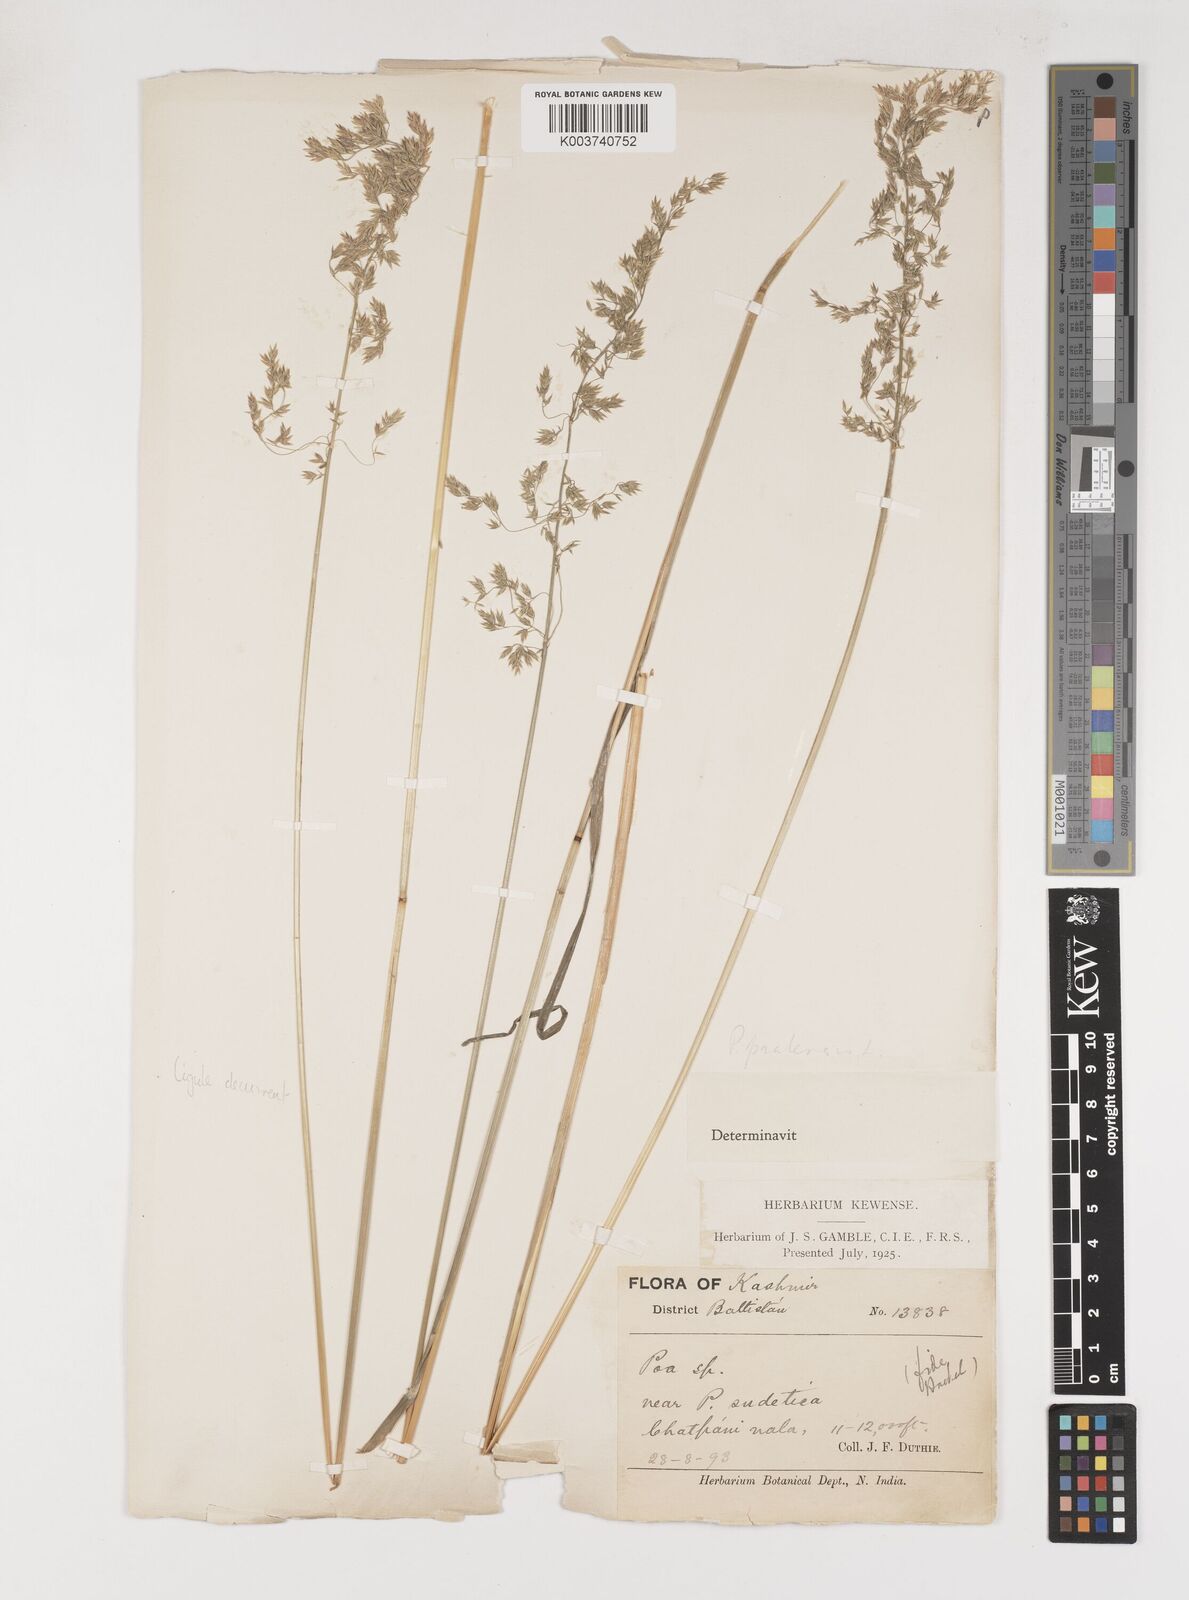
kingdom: Plantae
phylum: Tracheophyta
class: Liliopsida
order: Poales
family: Poaceae
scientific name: Poaceae
